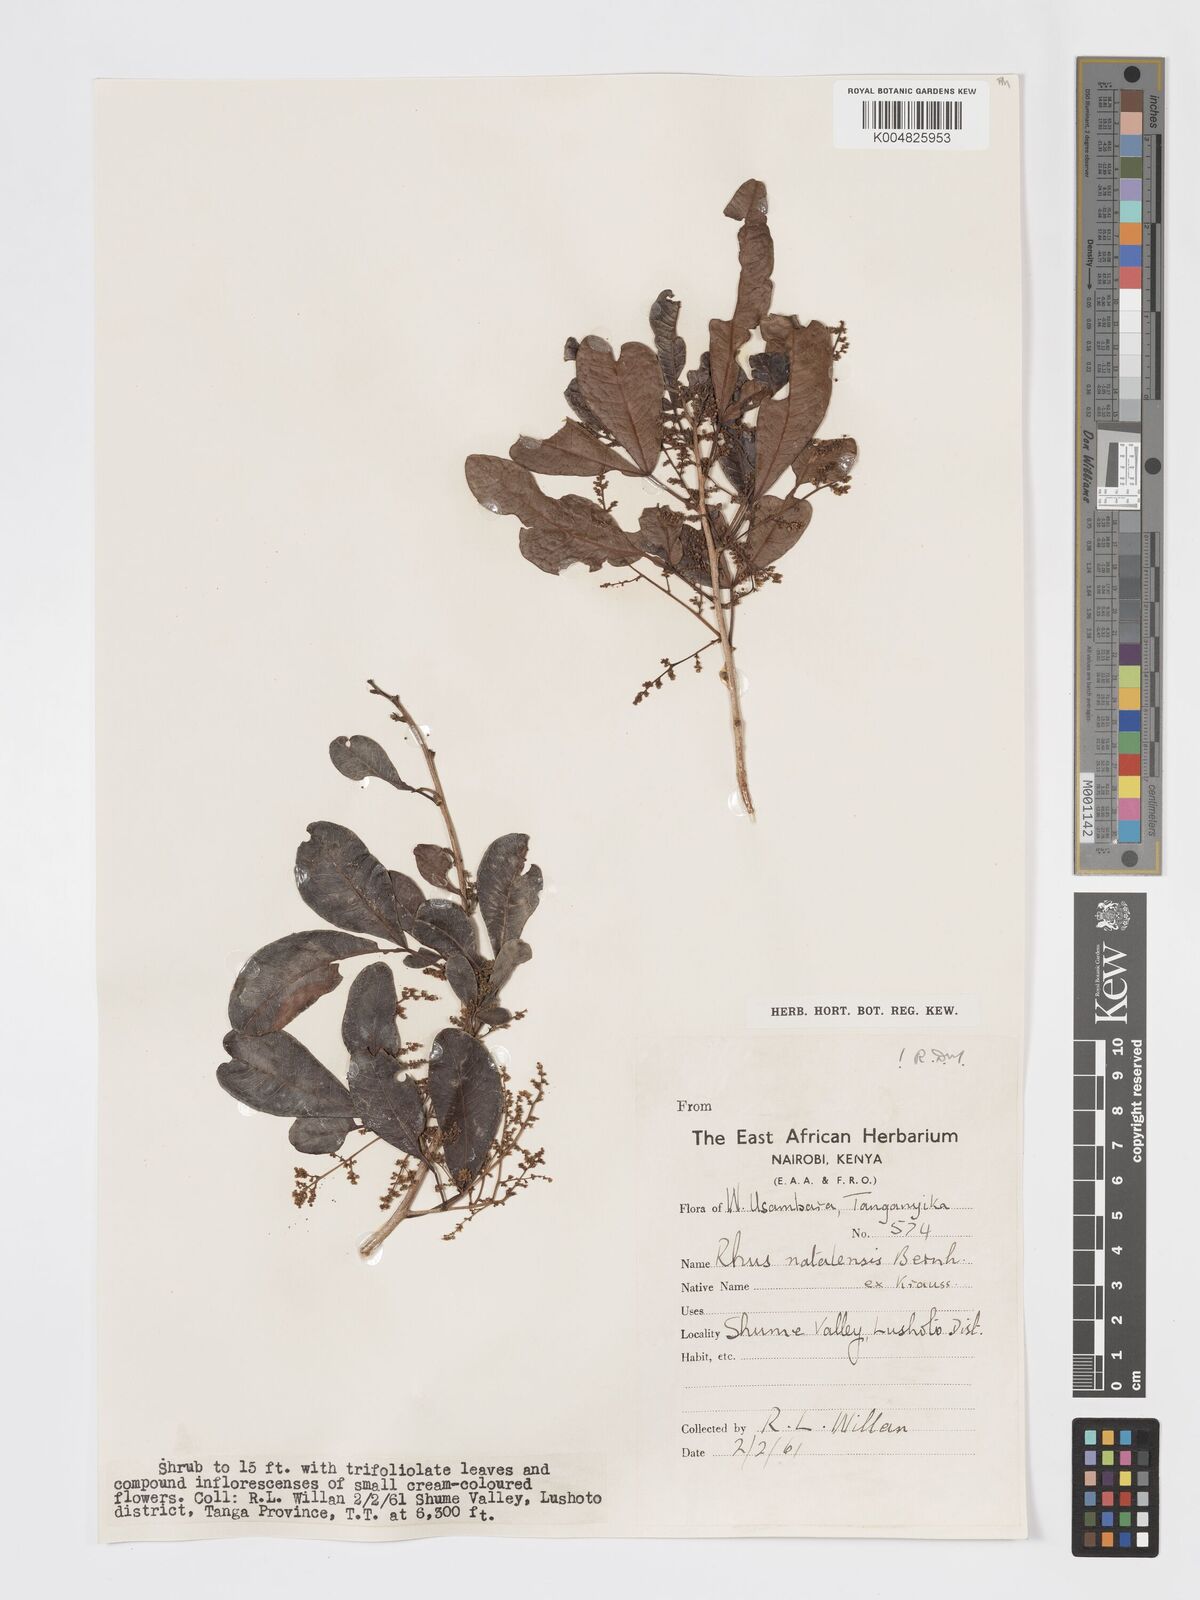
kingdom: Plantae
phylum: Tracheophyta
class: Magnoliopsida
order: Sapindales
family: Anacardiaceae
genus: Searsia
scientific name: Searsia natalensis
